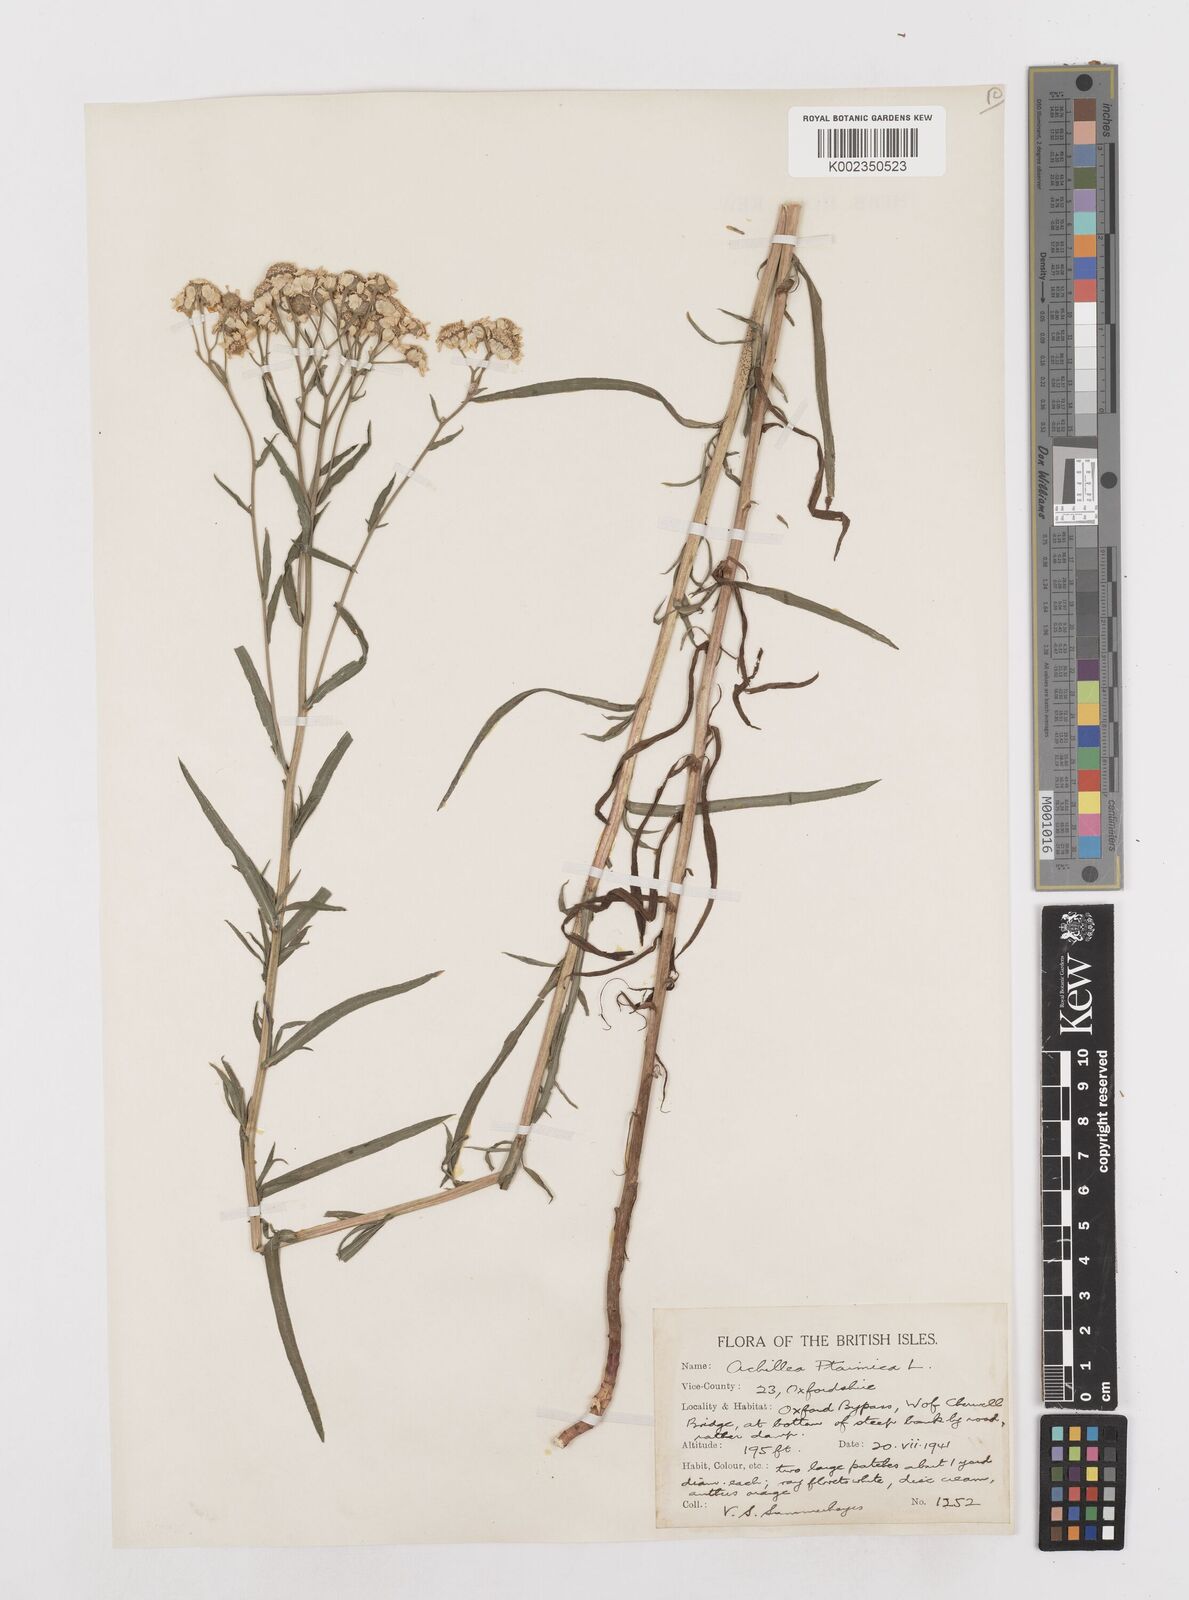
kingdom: Plantae
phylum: Tracheophyta
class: Magnoliopsida
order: Asterales
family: Asteraceae
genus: Achillea
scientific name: Achillea ptarmica
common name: Sneezeweed
